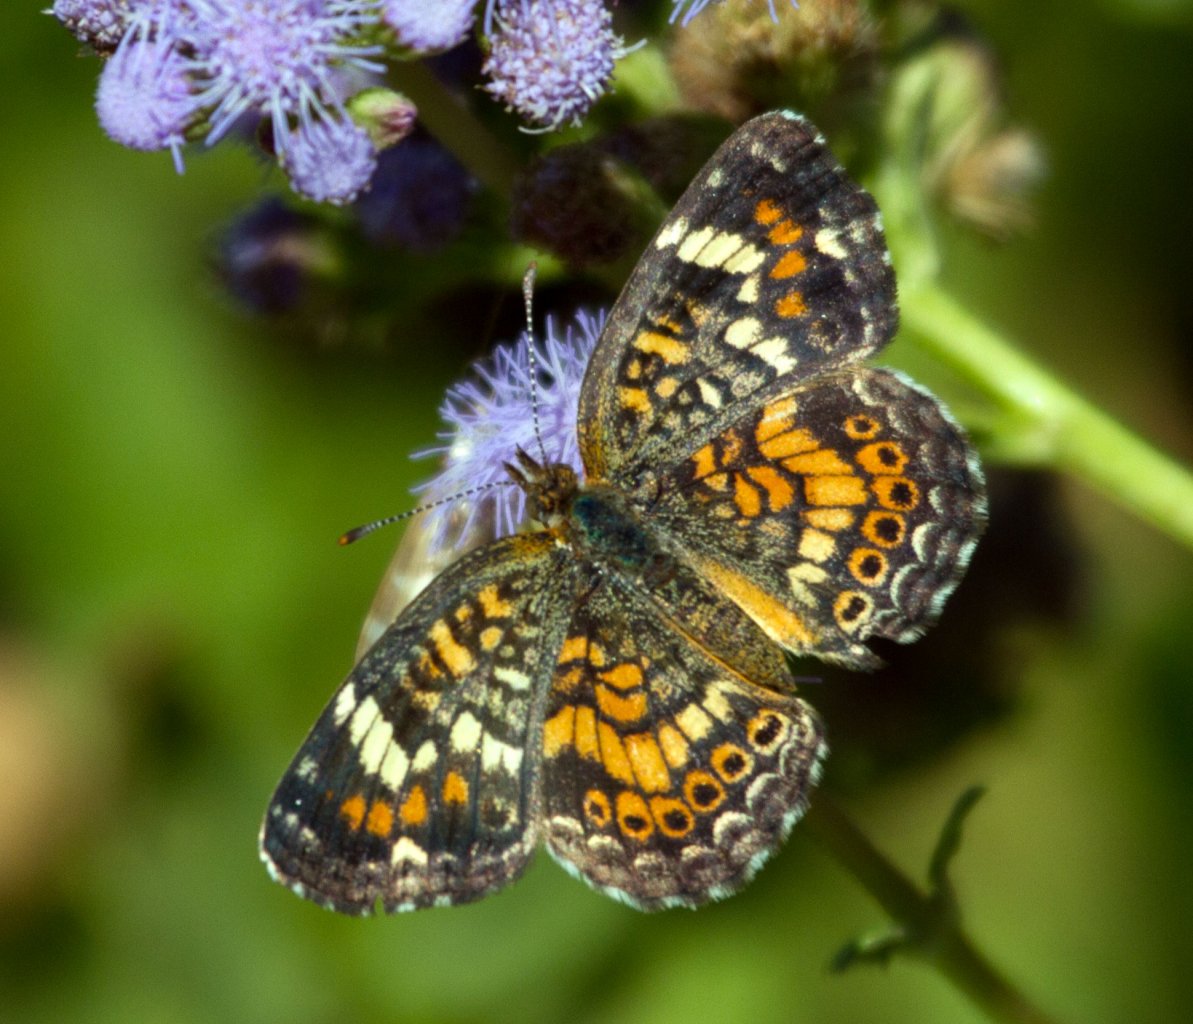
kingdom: Animalia
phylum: Arthropoda
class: Insecta
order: Lepidoptera
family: Nymphalidae
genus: Phyciodes
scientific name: Phyciodes phaon
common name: Phaon Crescent
